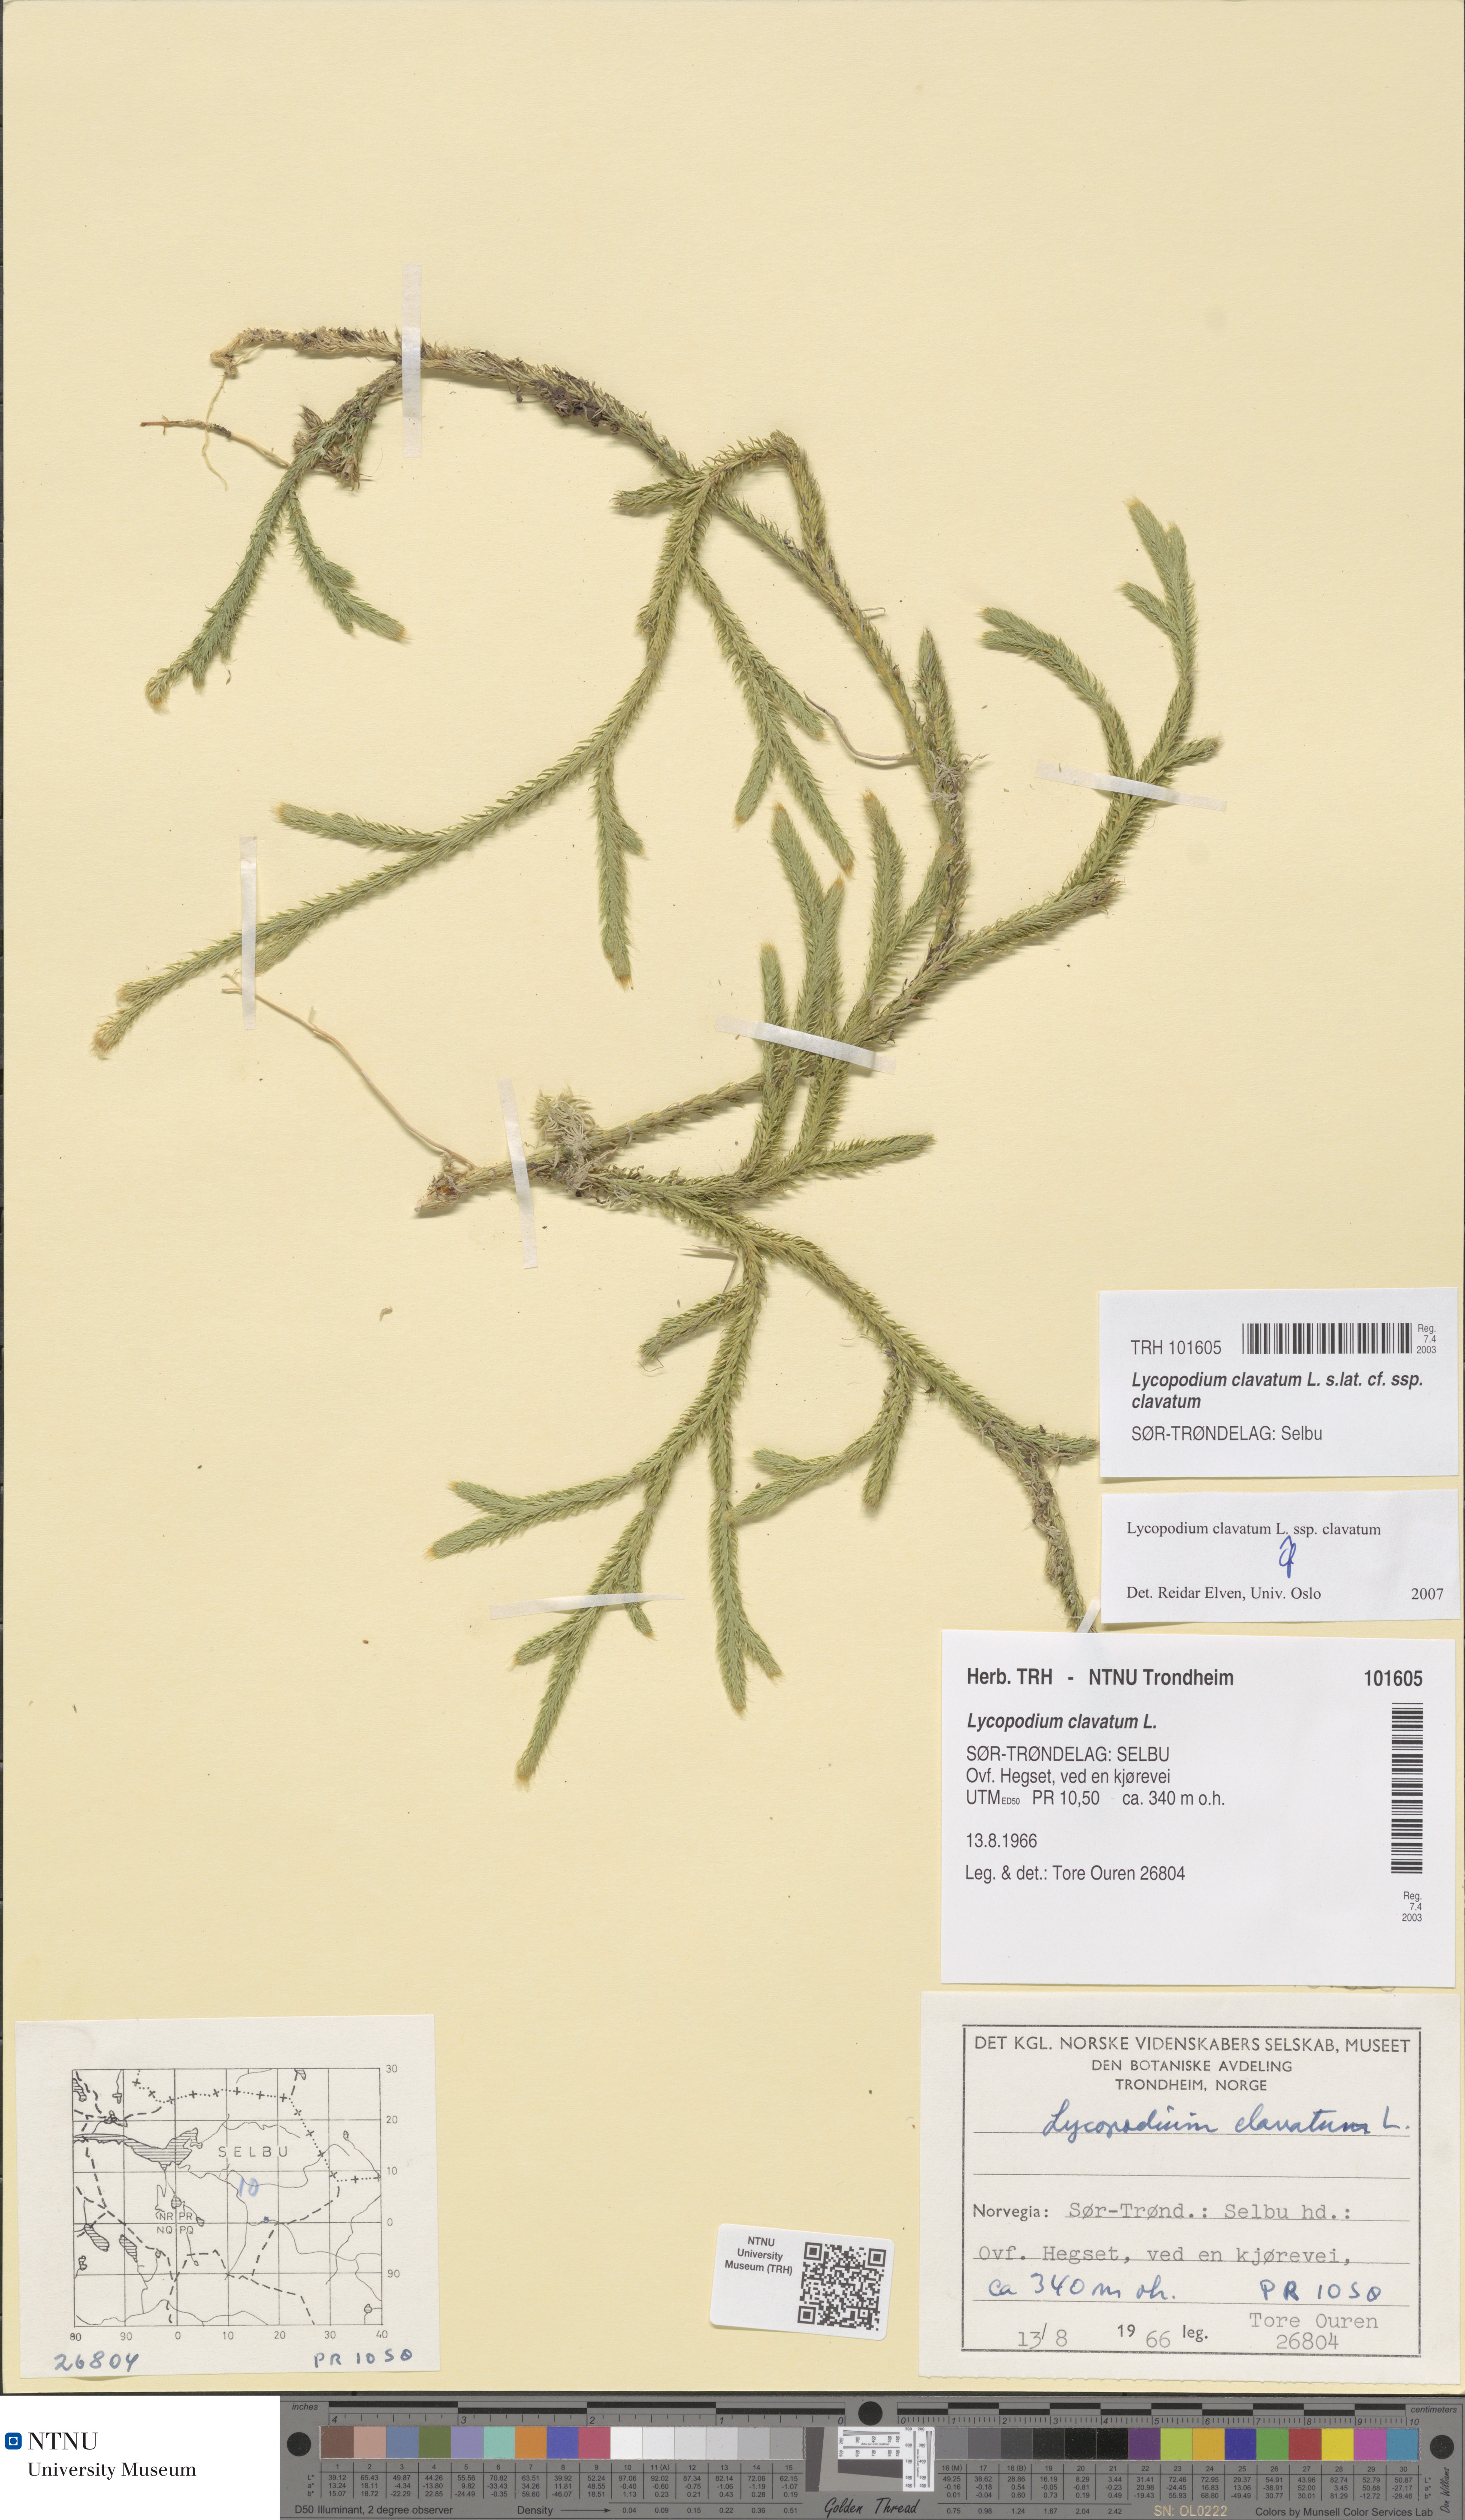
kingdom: Plantae
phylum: Tracheophyta
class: Lycopodiopsida
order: Lycopodiales
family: Lycopodiaceae
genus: Lycopodium
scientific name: Lycopodium clavatum
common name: Stag's-horn clubmoss
